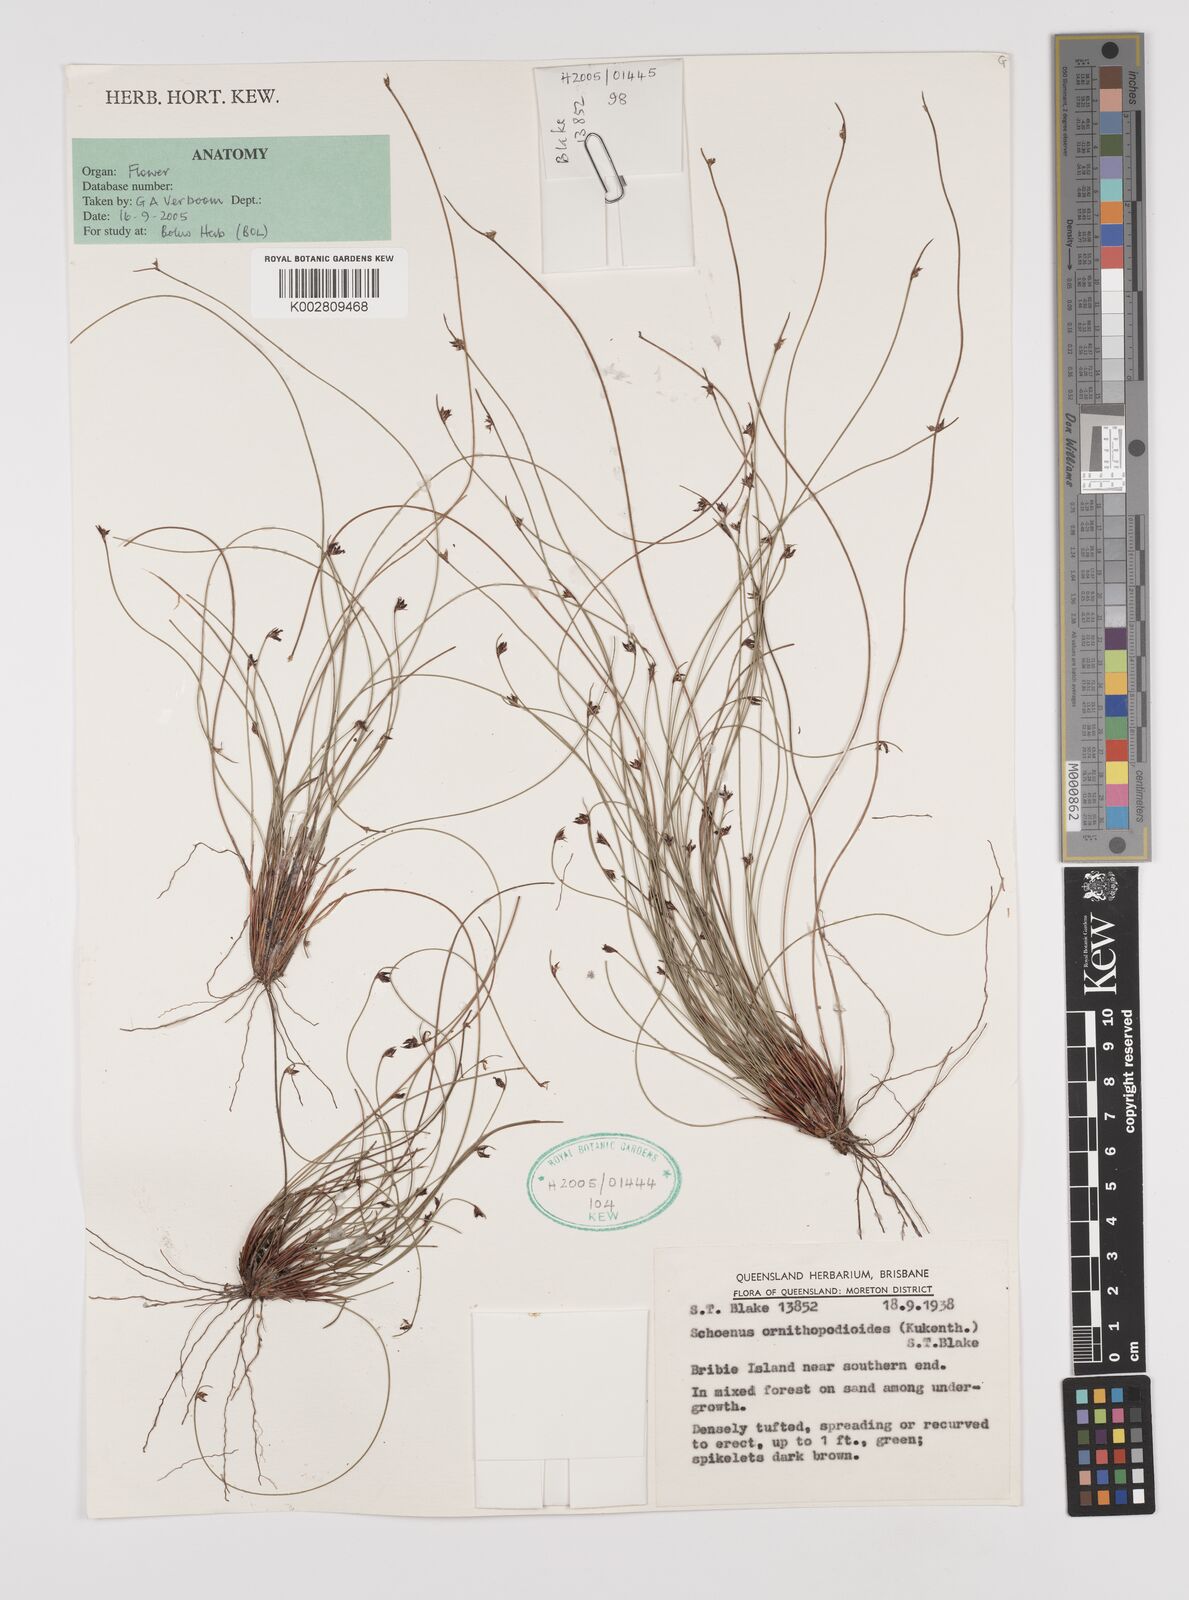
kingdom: Plantae
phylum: Tracheophyta
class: Liliopsida
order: Poales
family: Cyperaceae
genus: Schoenus
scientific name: Schoenus ornithopodioides
